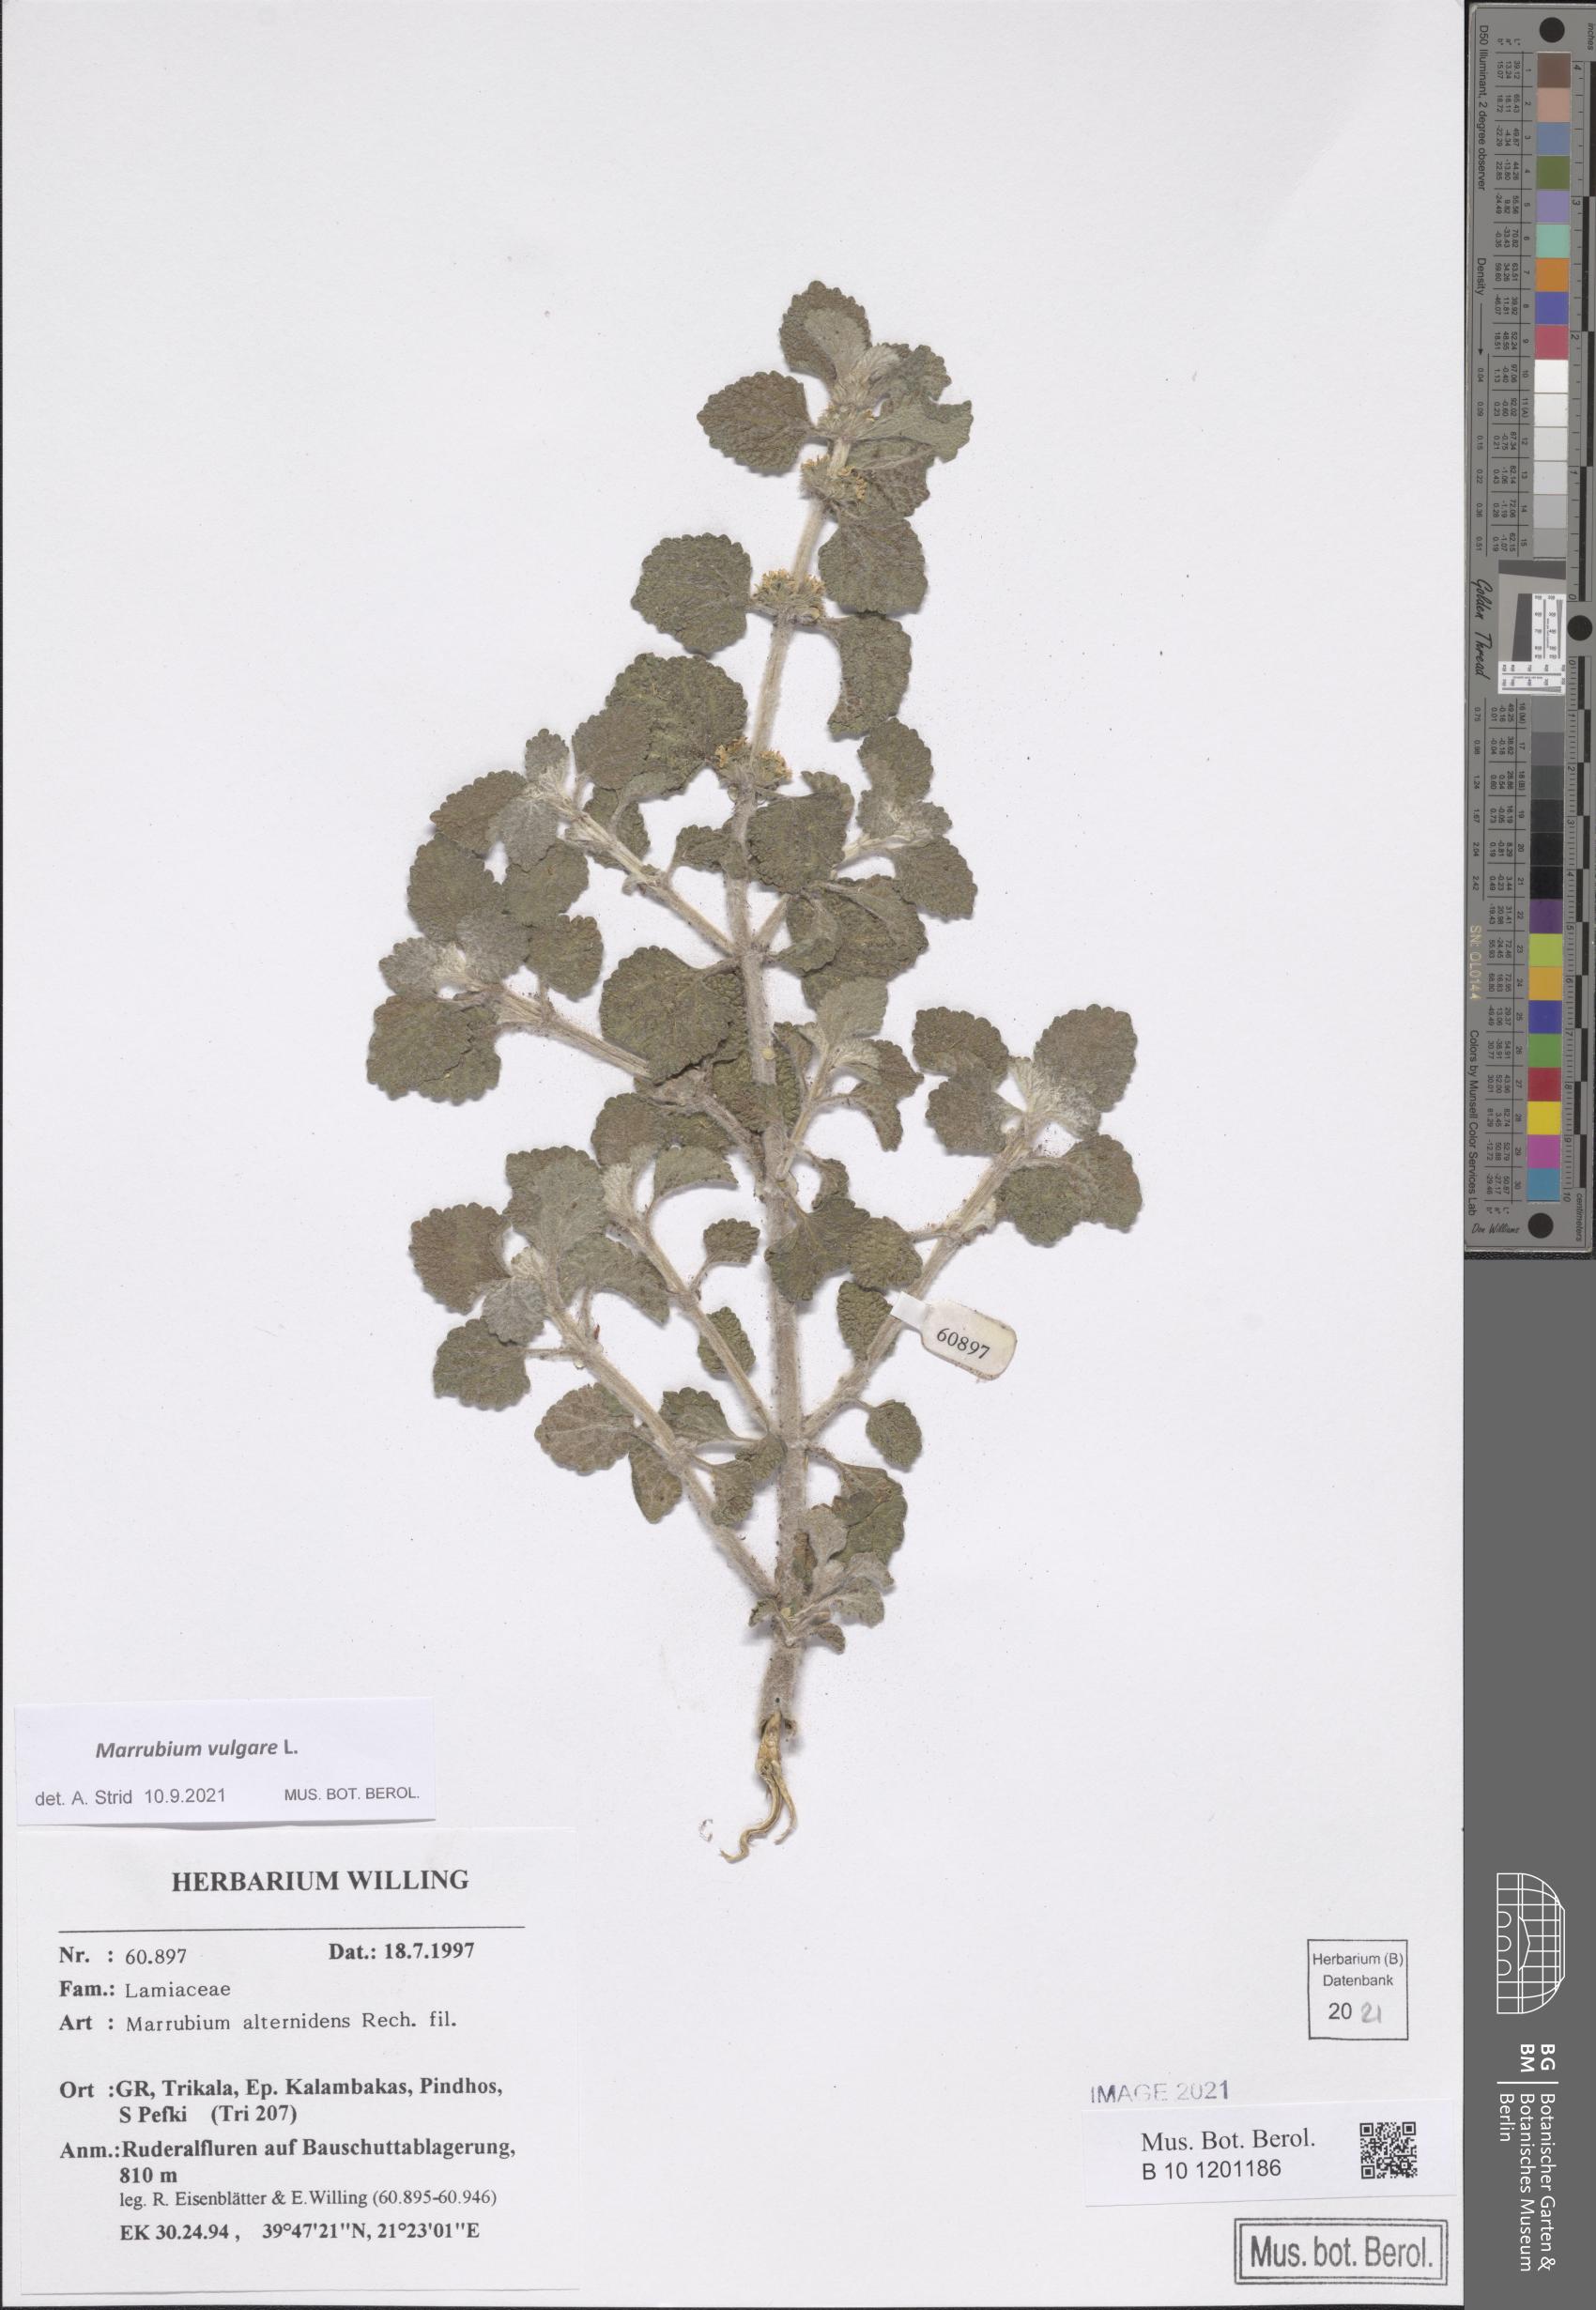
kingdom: Plantae
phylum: Tracheophyta
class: Magnoliopsida
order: Lamiales
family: Lamiaceae
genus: Marrubium
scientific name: Marrubium vulgare
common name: Horehound
